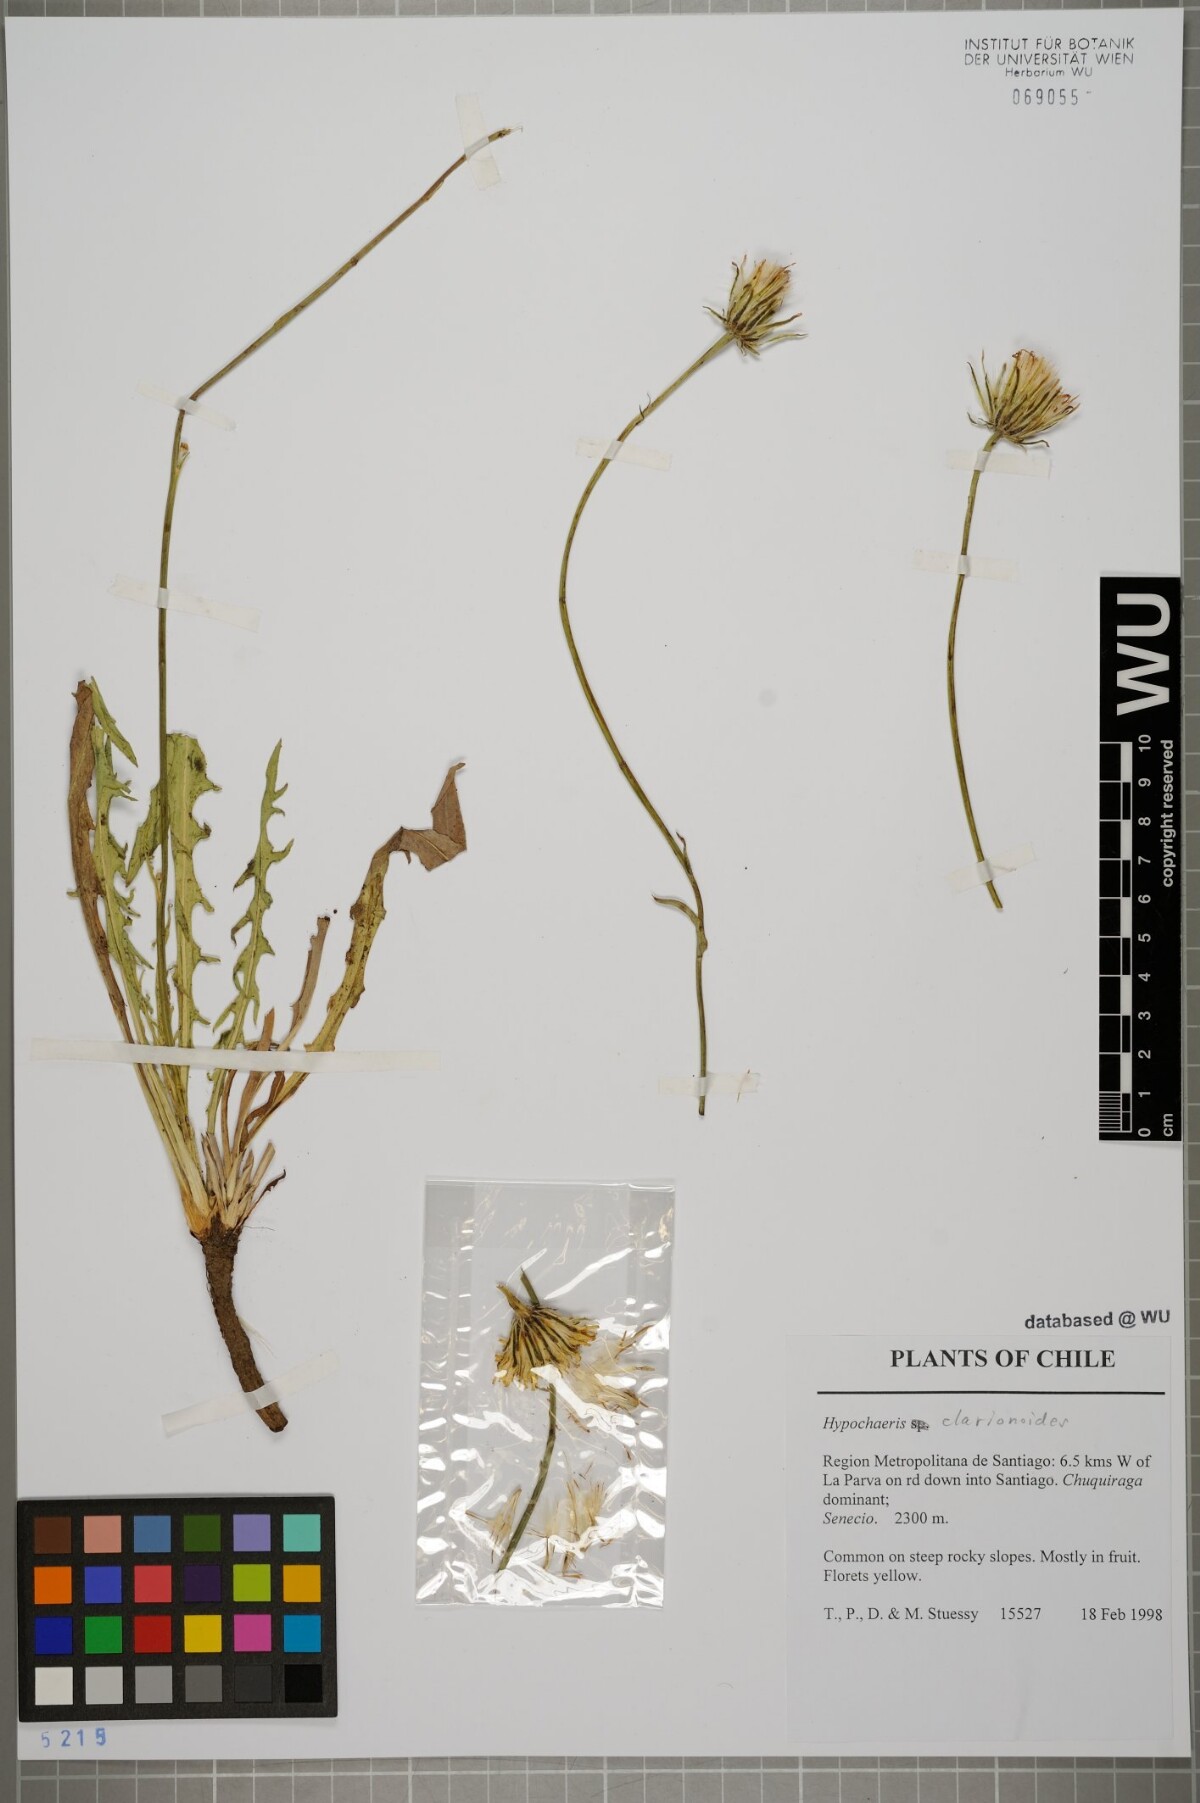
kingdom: Plantae
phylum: Tracheophyta
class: Magnoliopsida
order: Asterales
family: Asteraceae
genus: Hypochaeris
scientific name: Hypochaeris clarionoides
